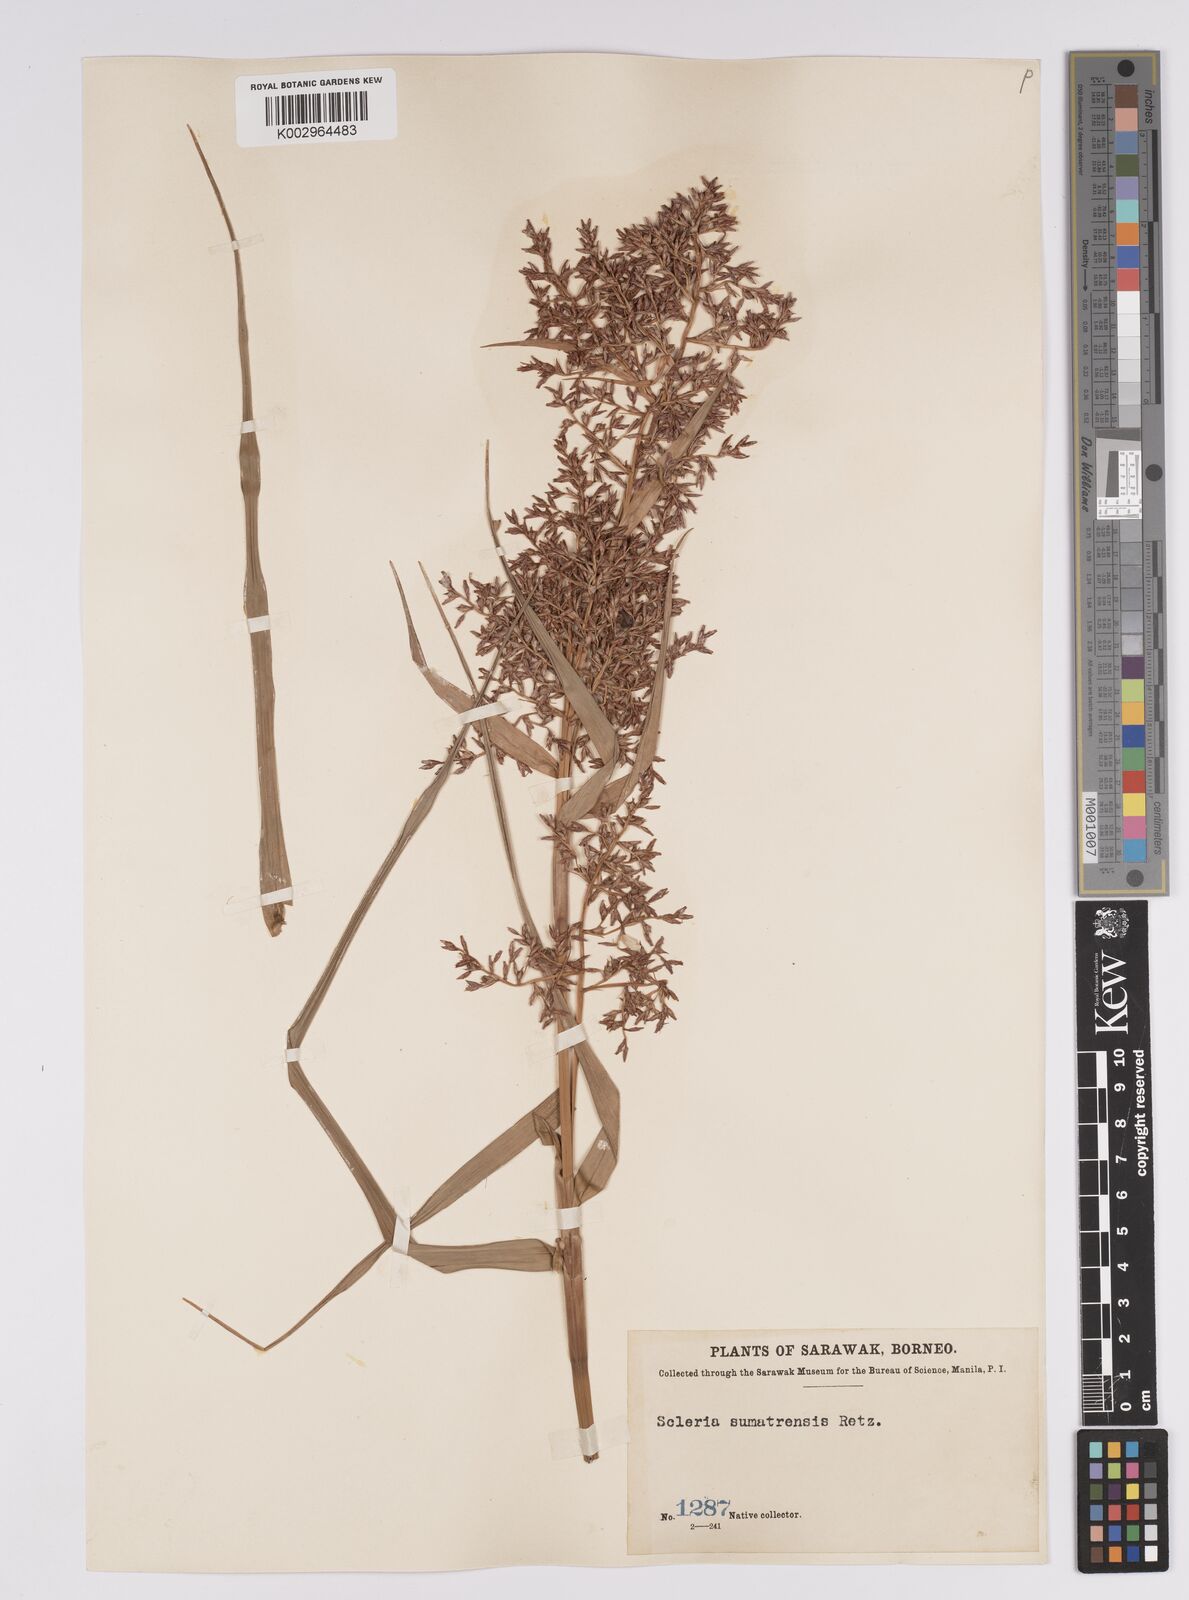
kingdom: Plantae
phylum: Tracheophyta
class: Liliopsida
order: Poales
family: Cyperaceae
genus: Scleria
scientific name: Scleria sumatrensis
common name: Sumatran scleria
